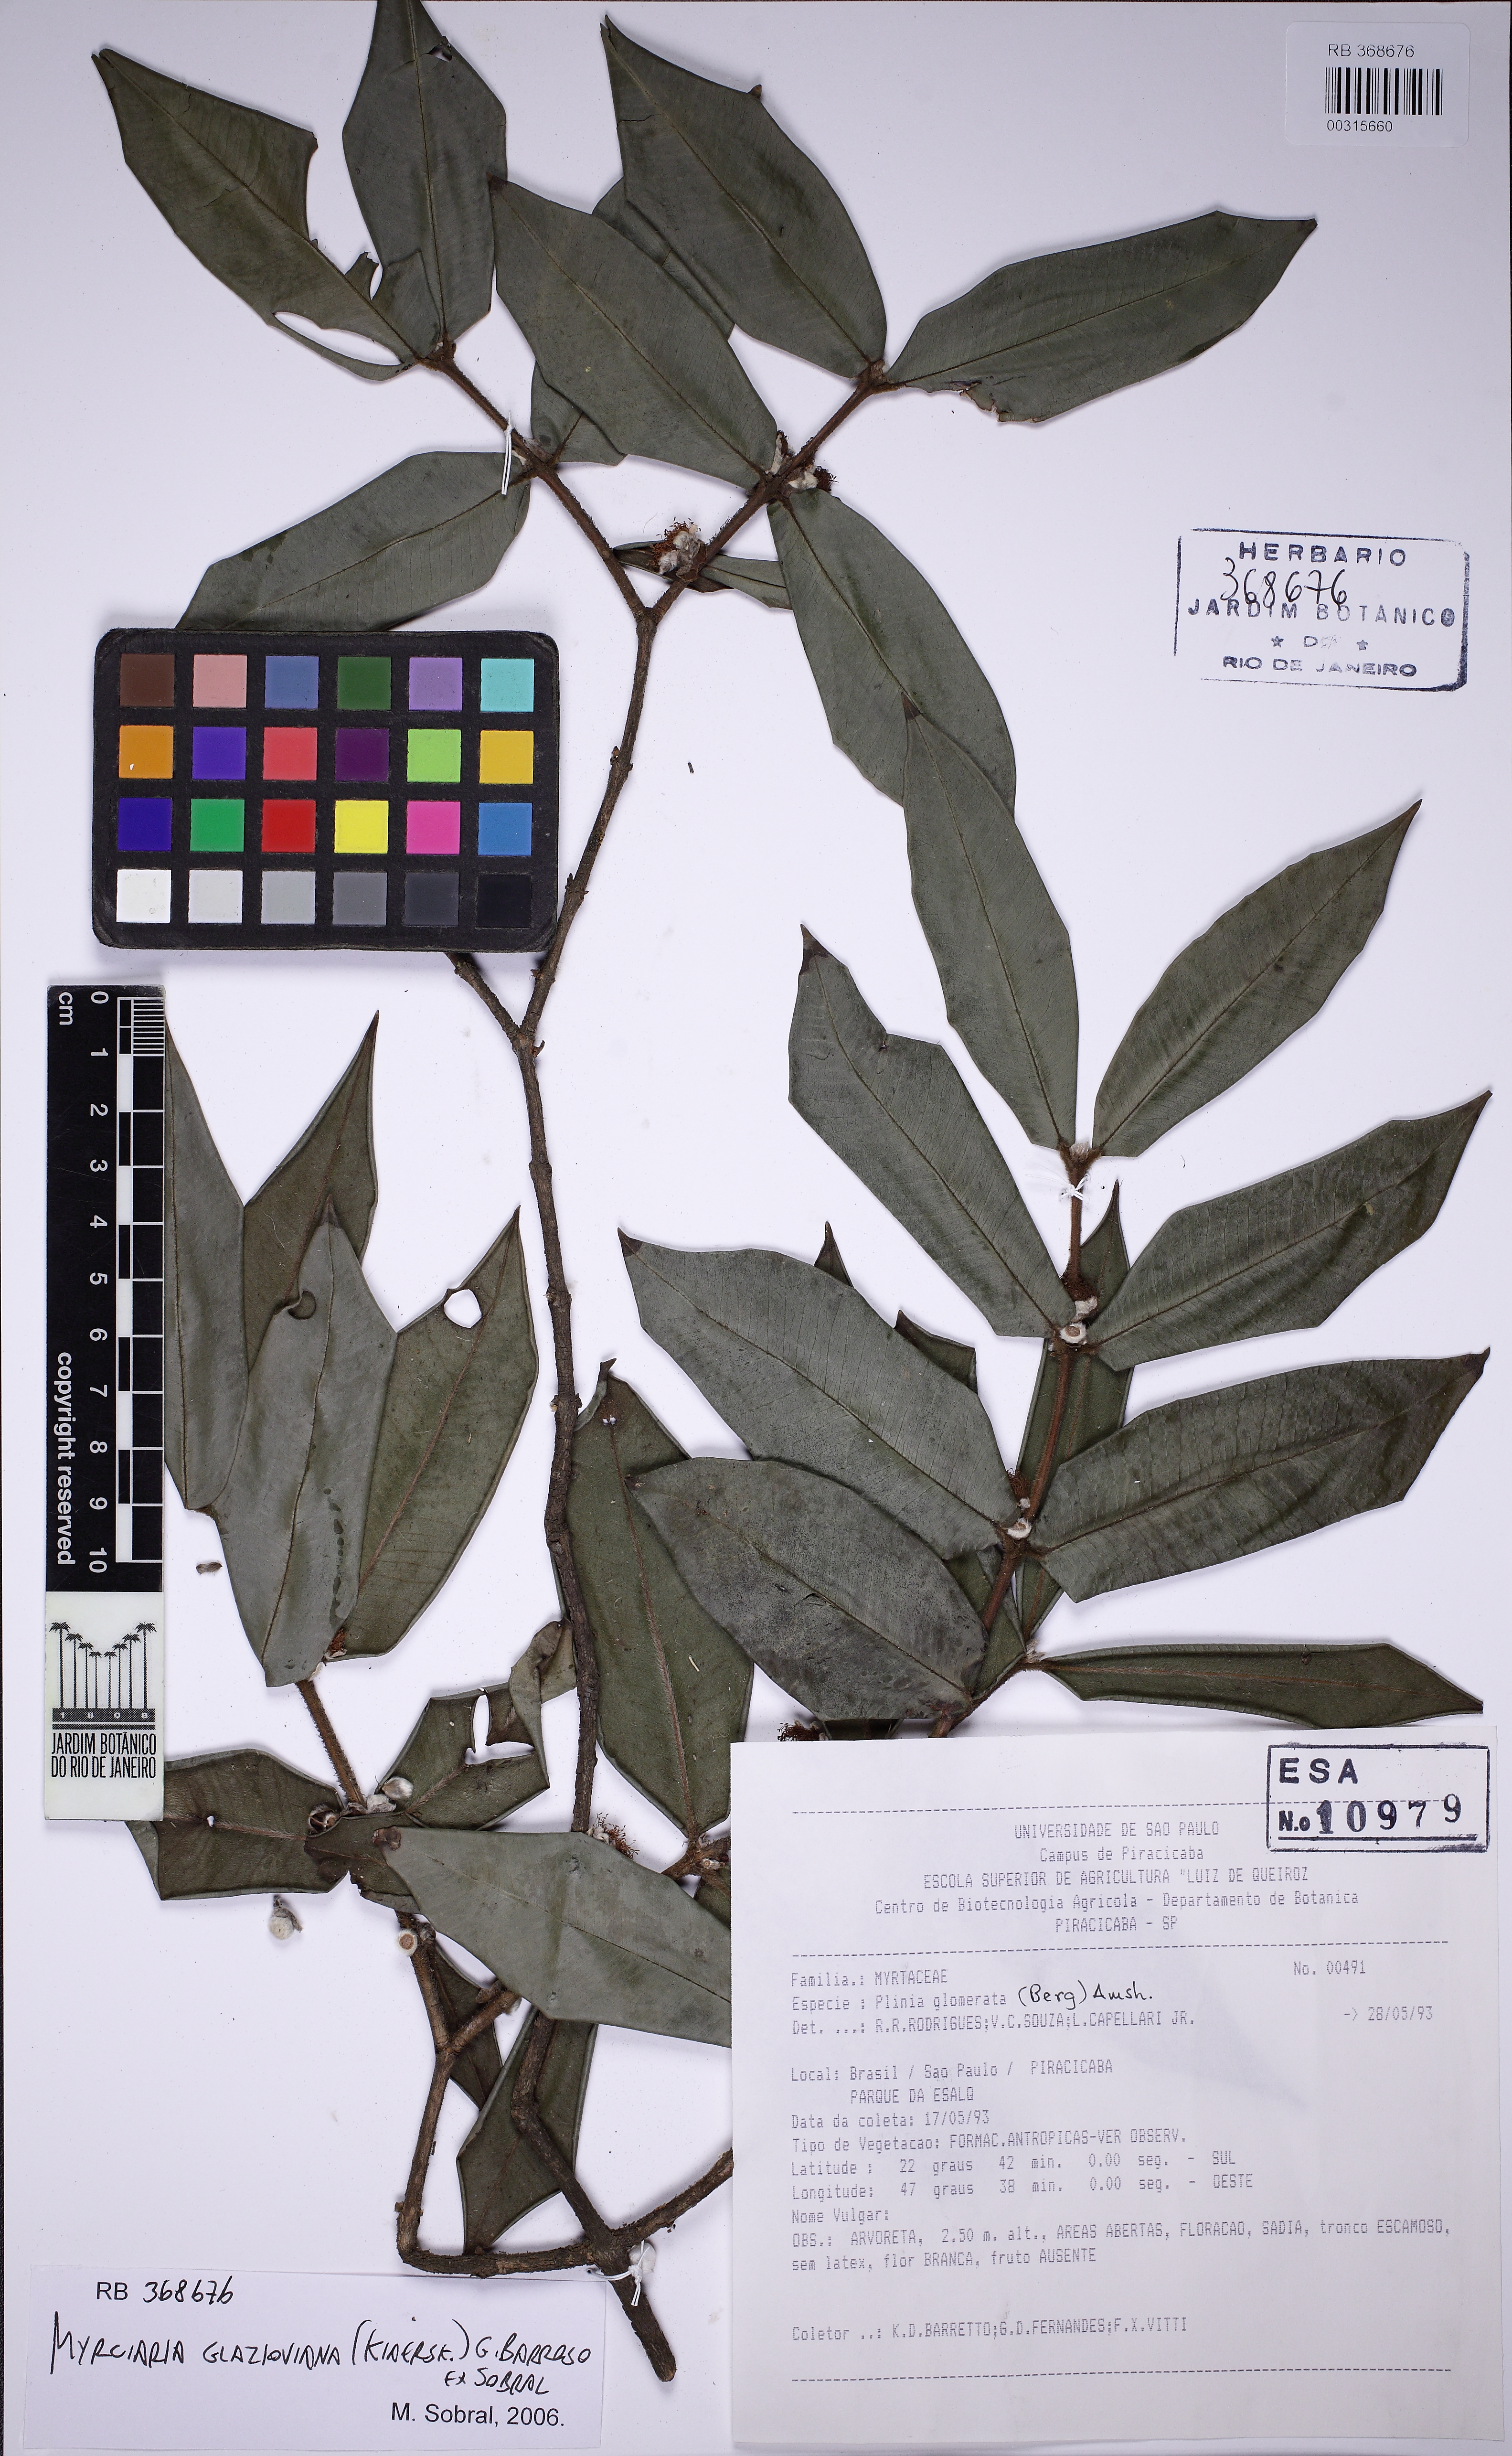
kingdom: Plantae
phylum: Tracheophyta
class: Magnoliopsida
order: Myrtales
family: Myrtaceae
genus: Myrciaria
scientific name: Myrciaria glazioviana
